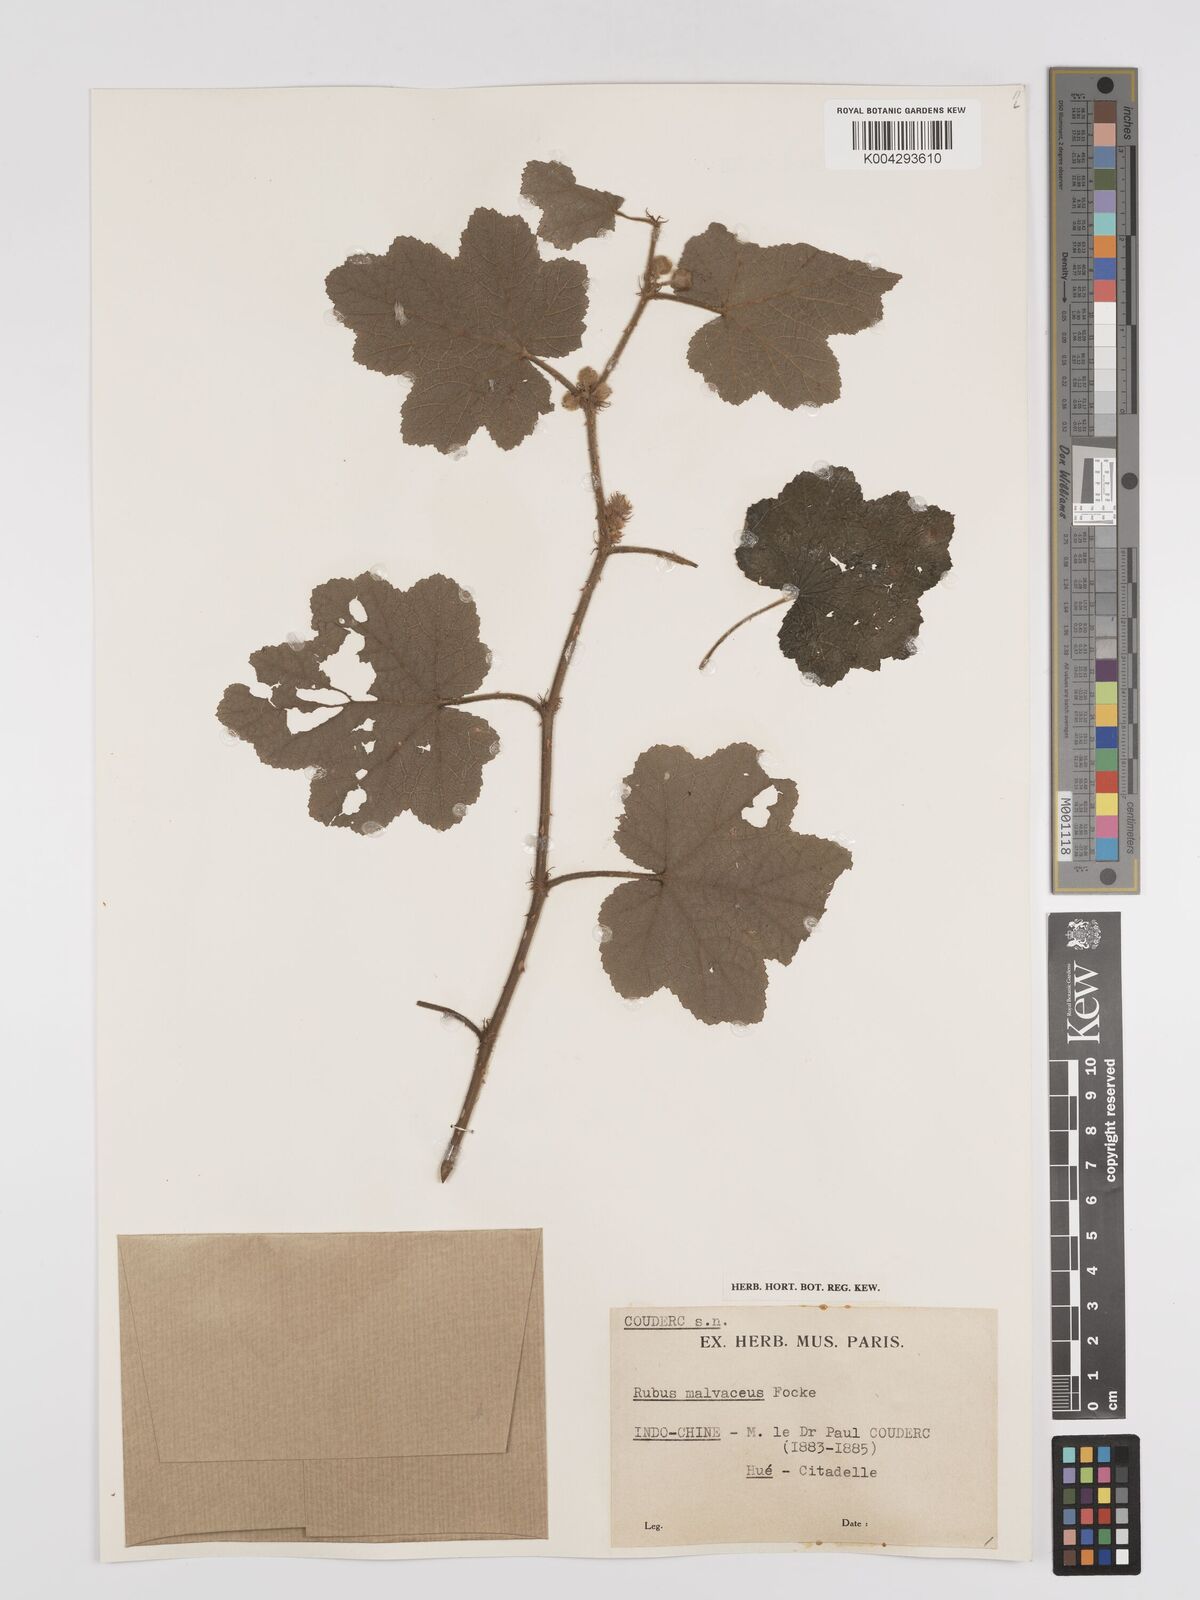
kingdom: Plantae
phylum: Tracheophyta
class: Magnoliopsida
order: Rosales
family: Rosaceae
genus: Rubus
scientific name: Rubus malvaceus
